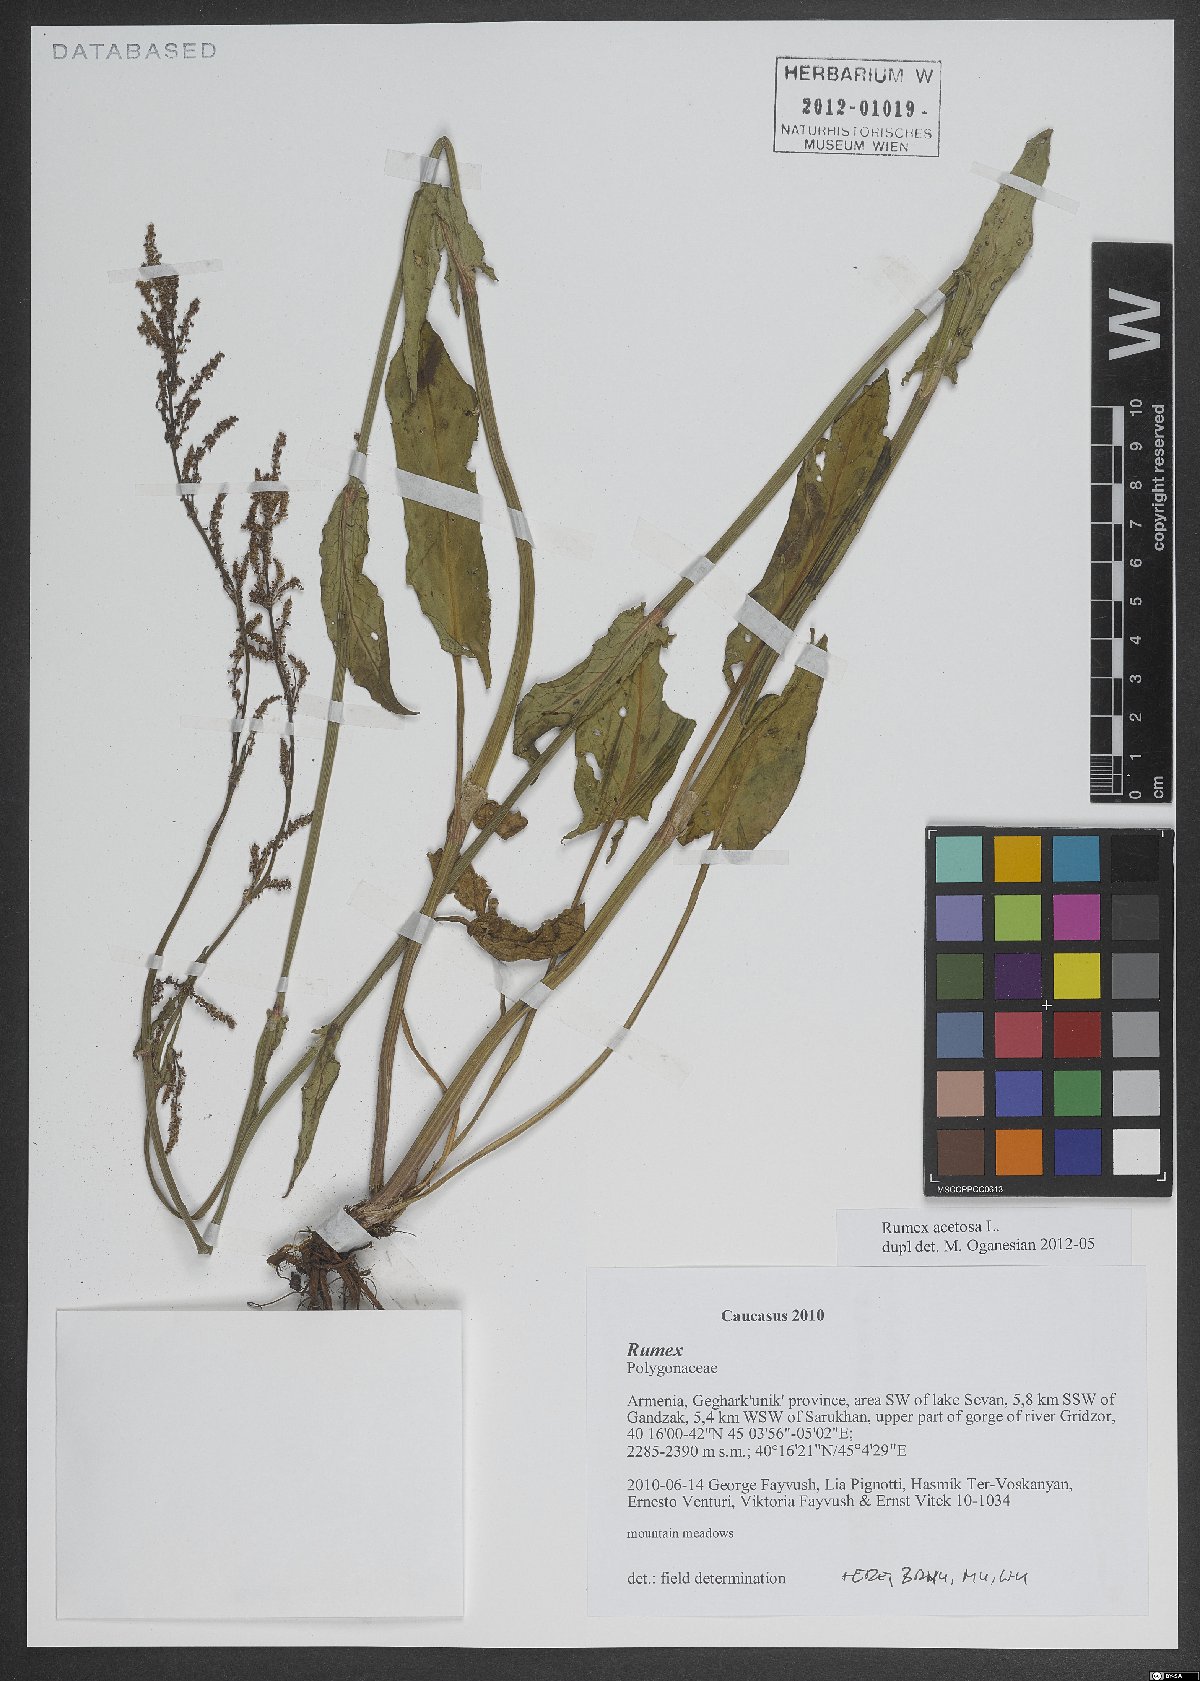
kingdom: Plantae
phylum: Tracheophyta
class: Magnoliopsida
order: Caryophyllales
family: Polygonaceae
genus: Rumex
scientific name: Rumex acetosa
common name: Garden sorrel
